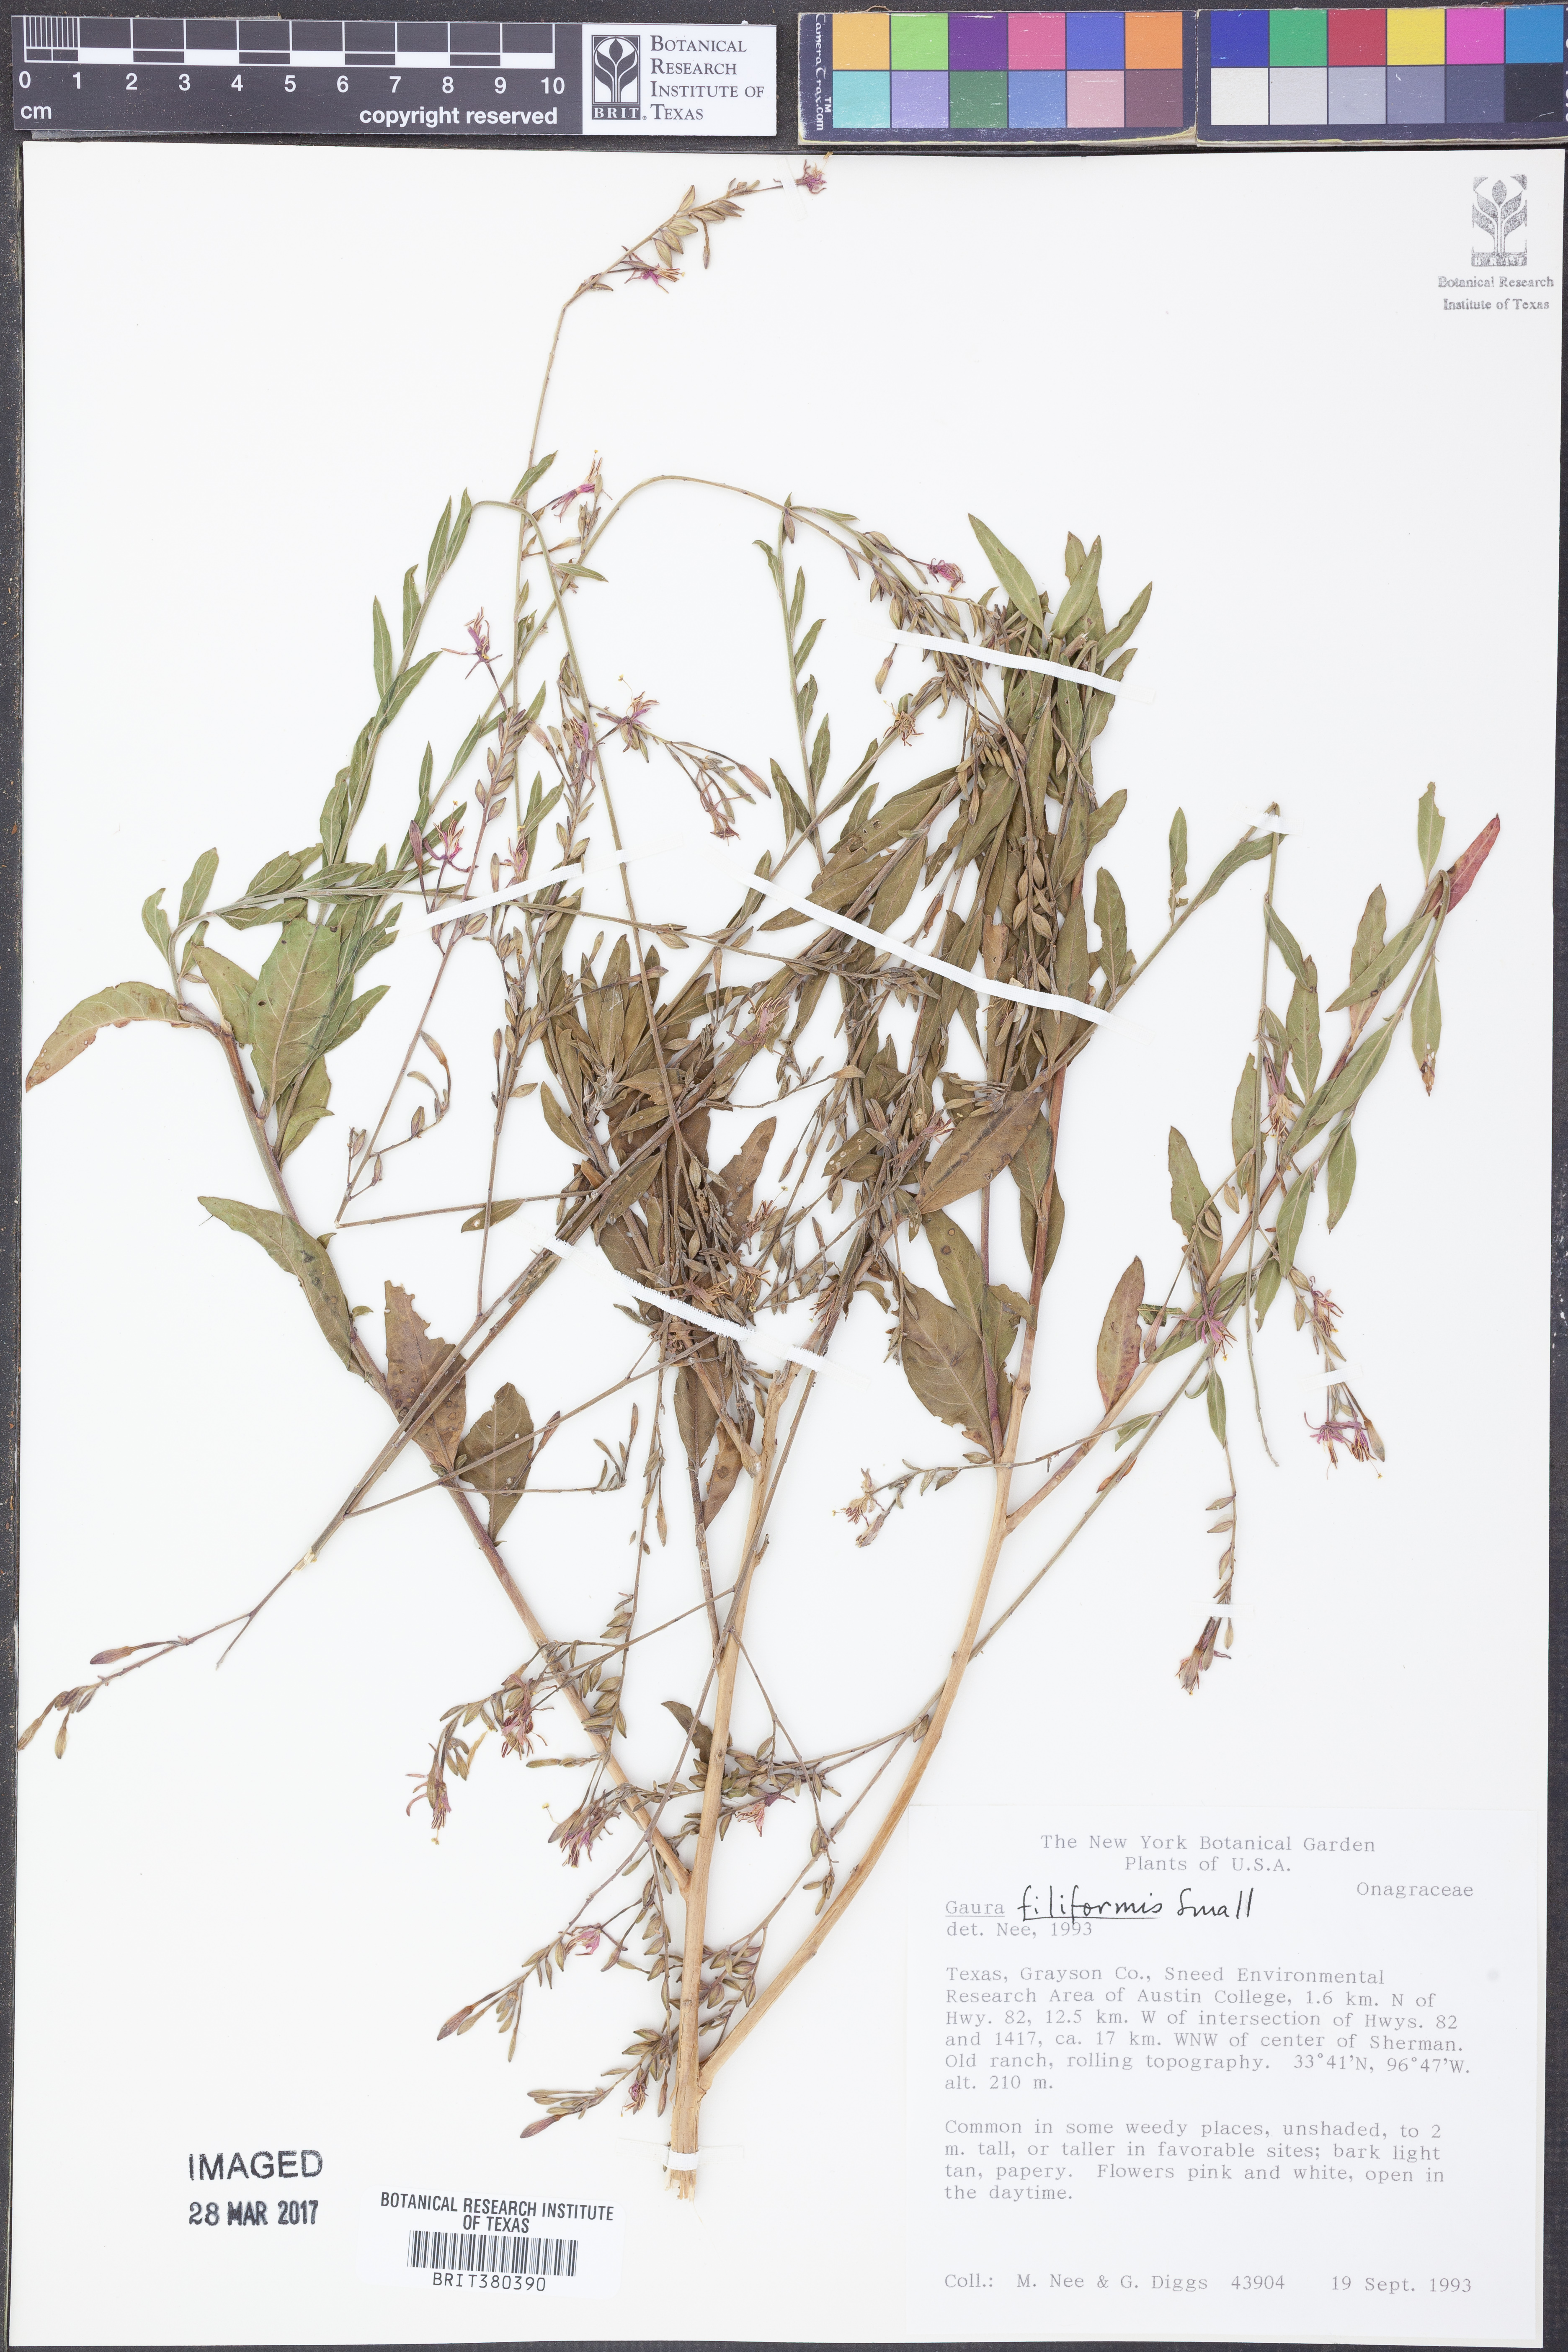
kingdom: Plantae
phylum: Tracheophyta
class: Magnoliopsida
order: Myrtales
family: Onagraceae
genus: Oenothera
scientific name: Oenothera filiformis
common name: Longflower beeblossom
